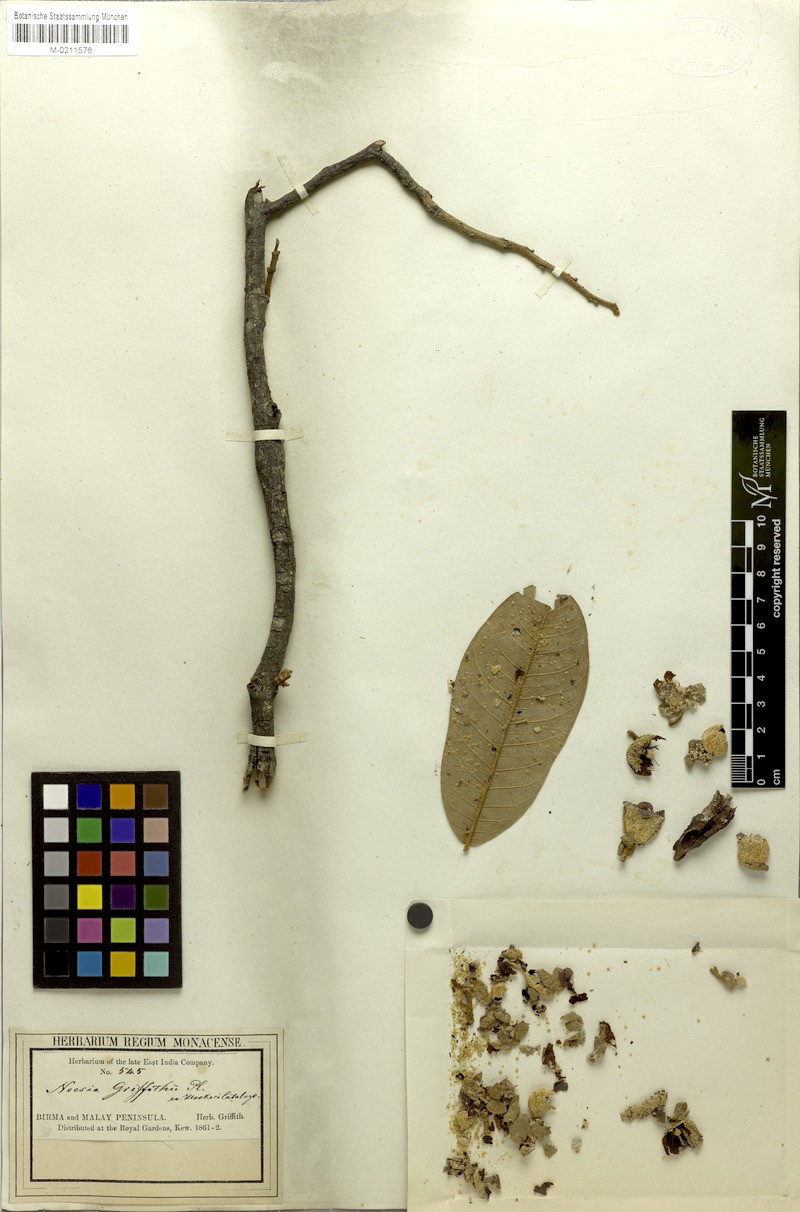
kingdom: Plantae
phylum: Tracheophyta
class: Magnoliopsida
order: Malvales
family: Malvaceae
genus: Durio
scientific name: Durio oxleyanus
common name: Durian
